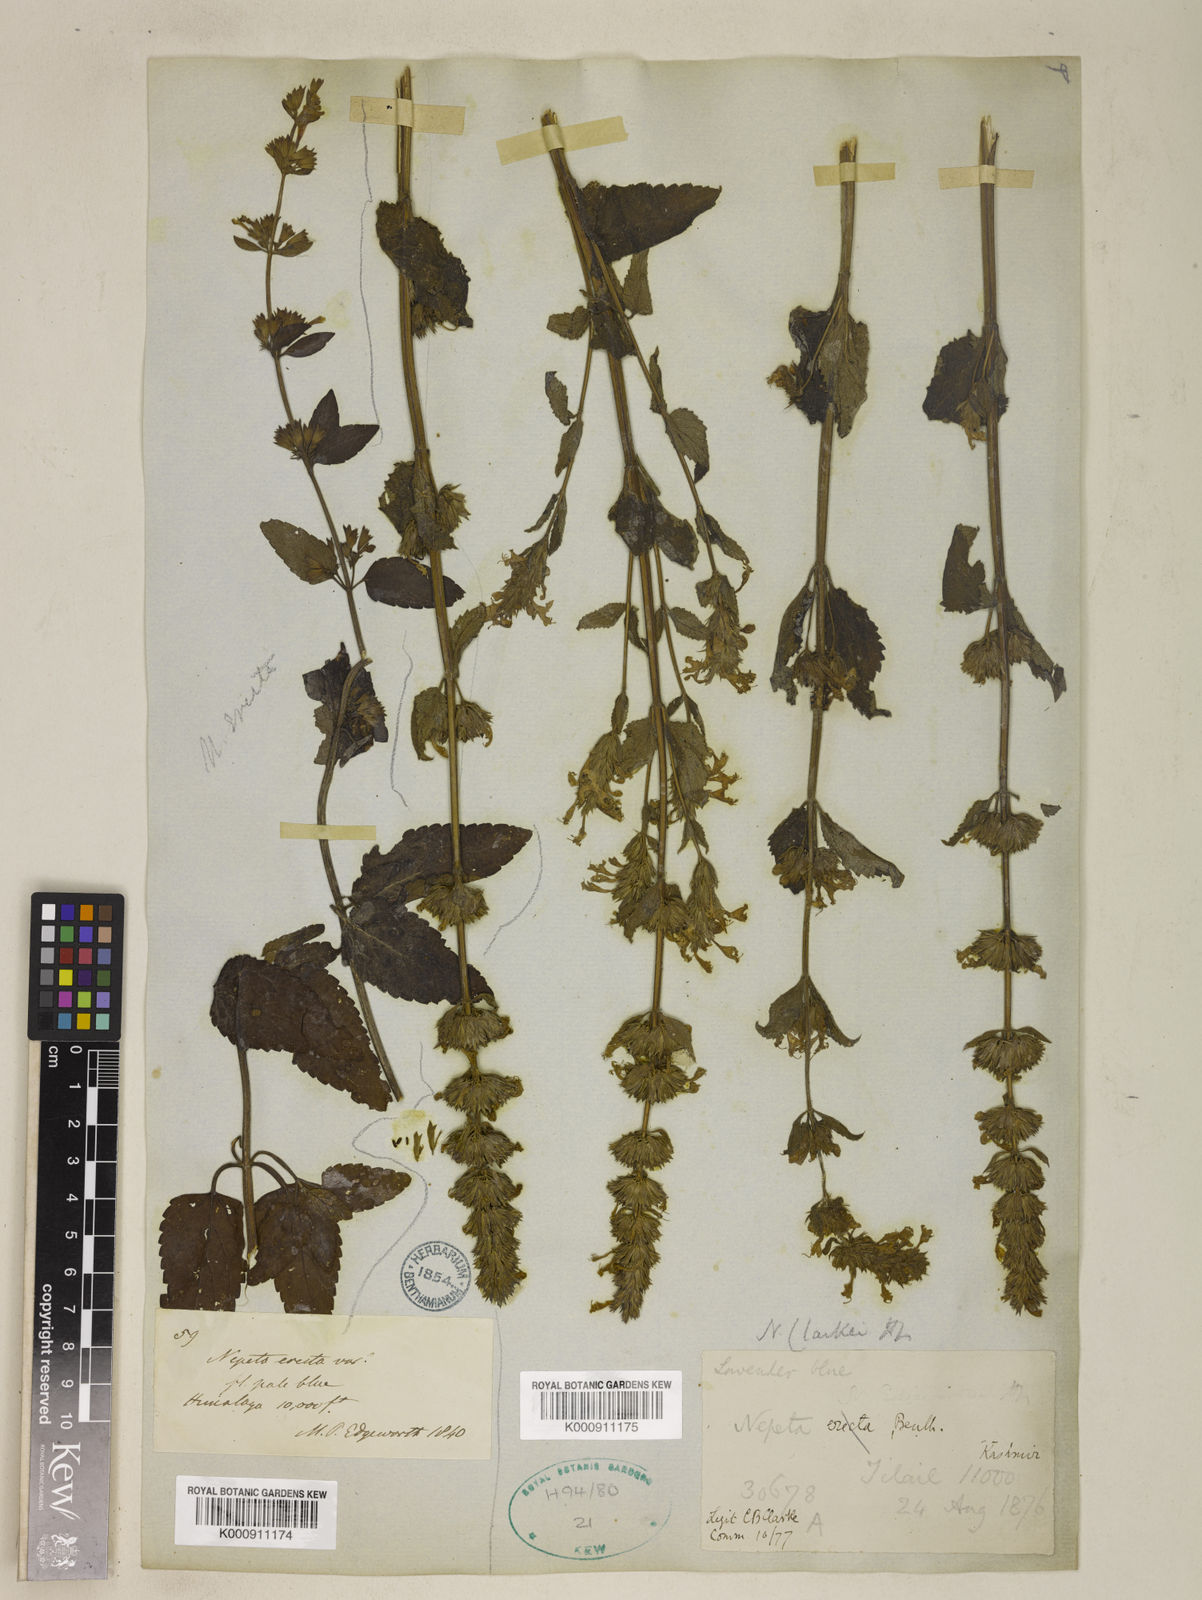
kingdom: Plantae
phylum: Tracheophyta
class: Magnoliopsida
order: Lamiales
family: Lamiaceae
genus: Nepeta
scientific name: Nepeta clarkei
